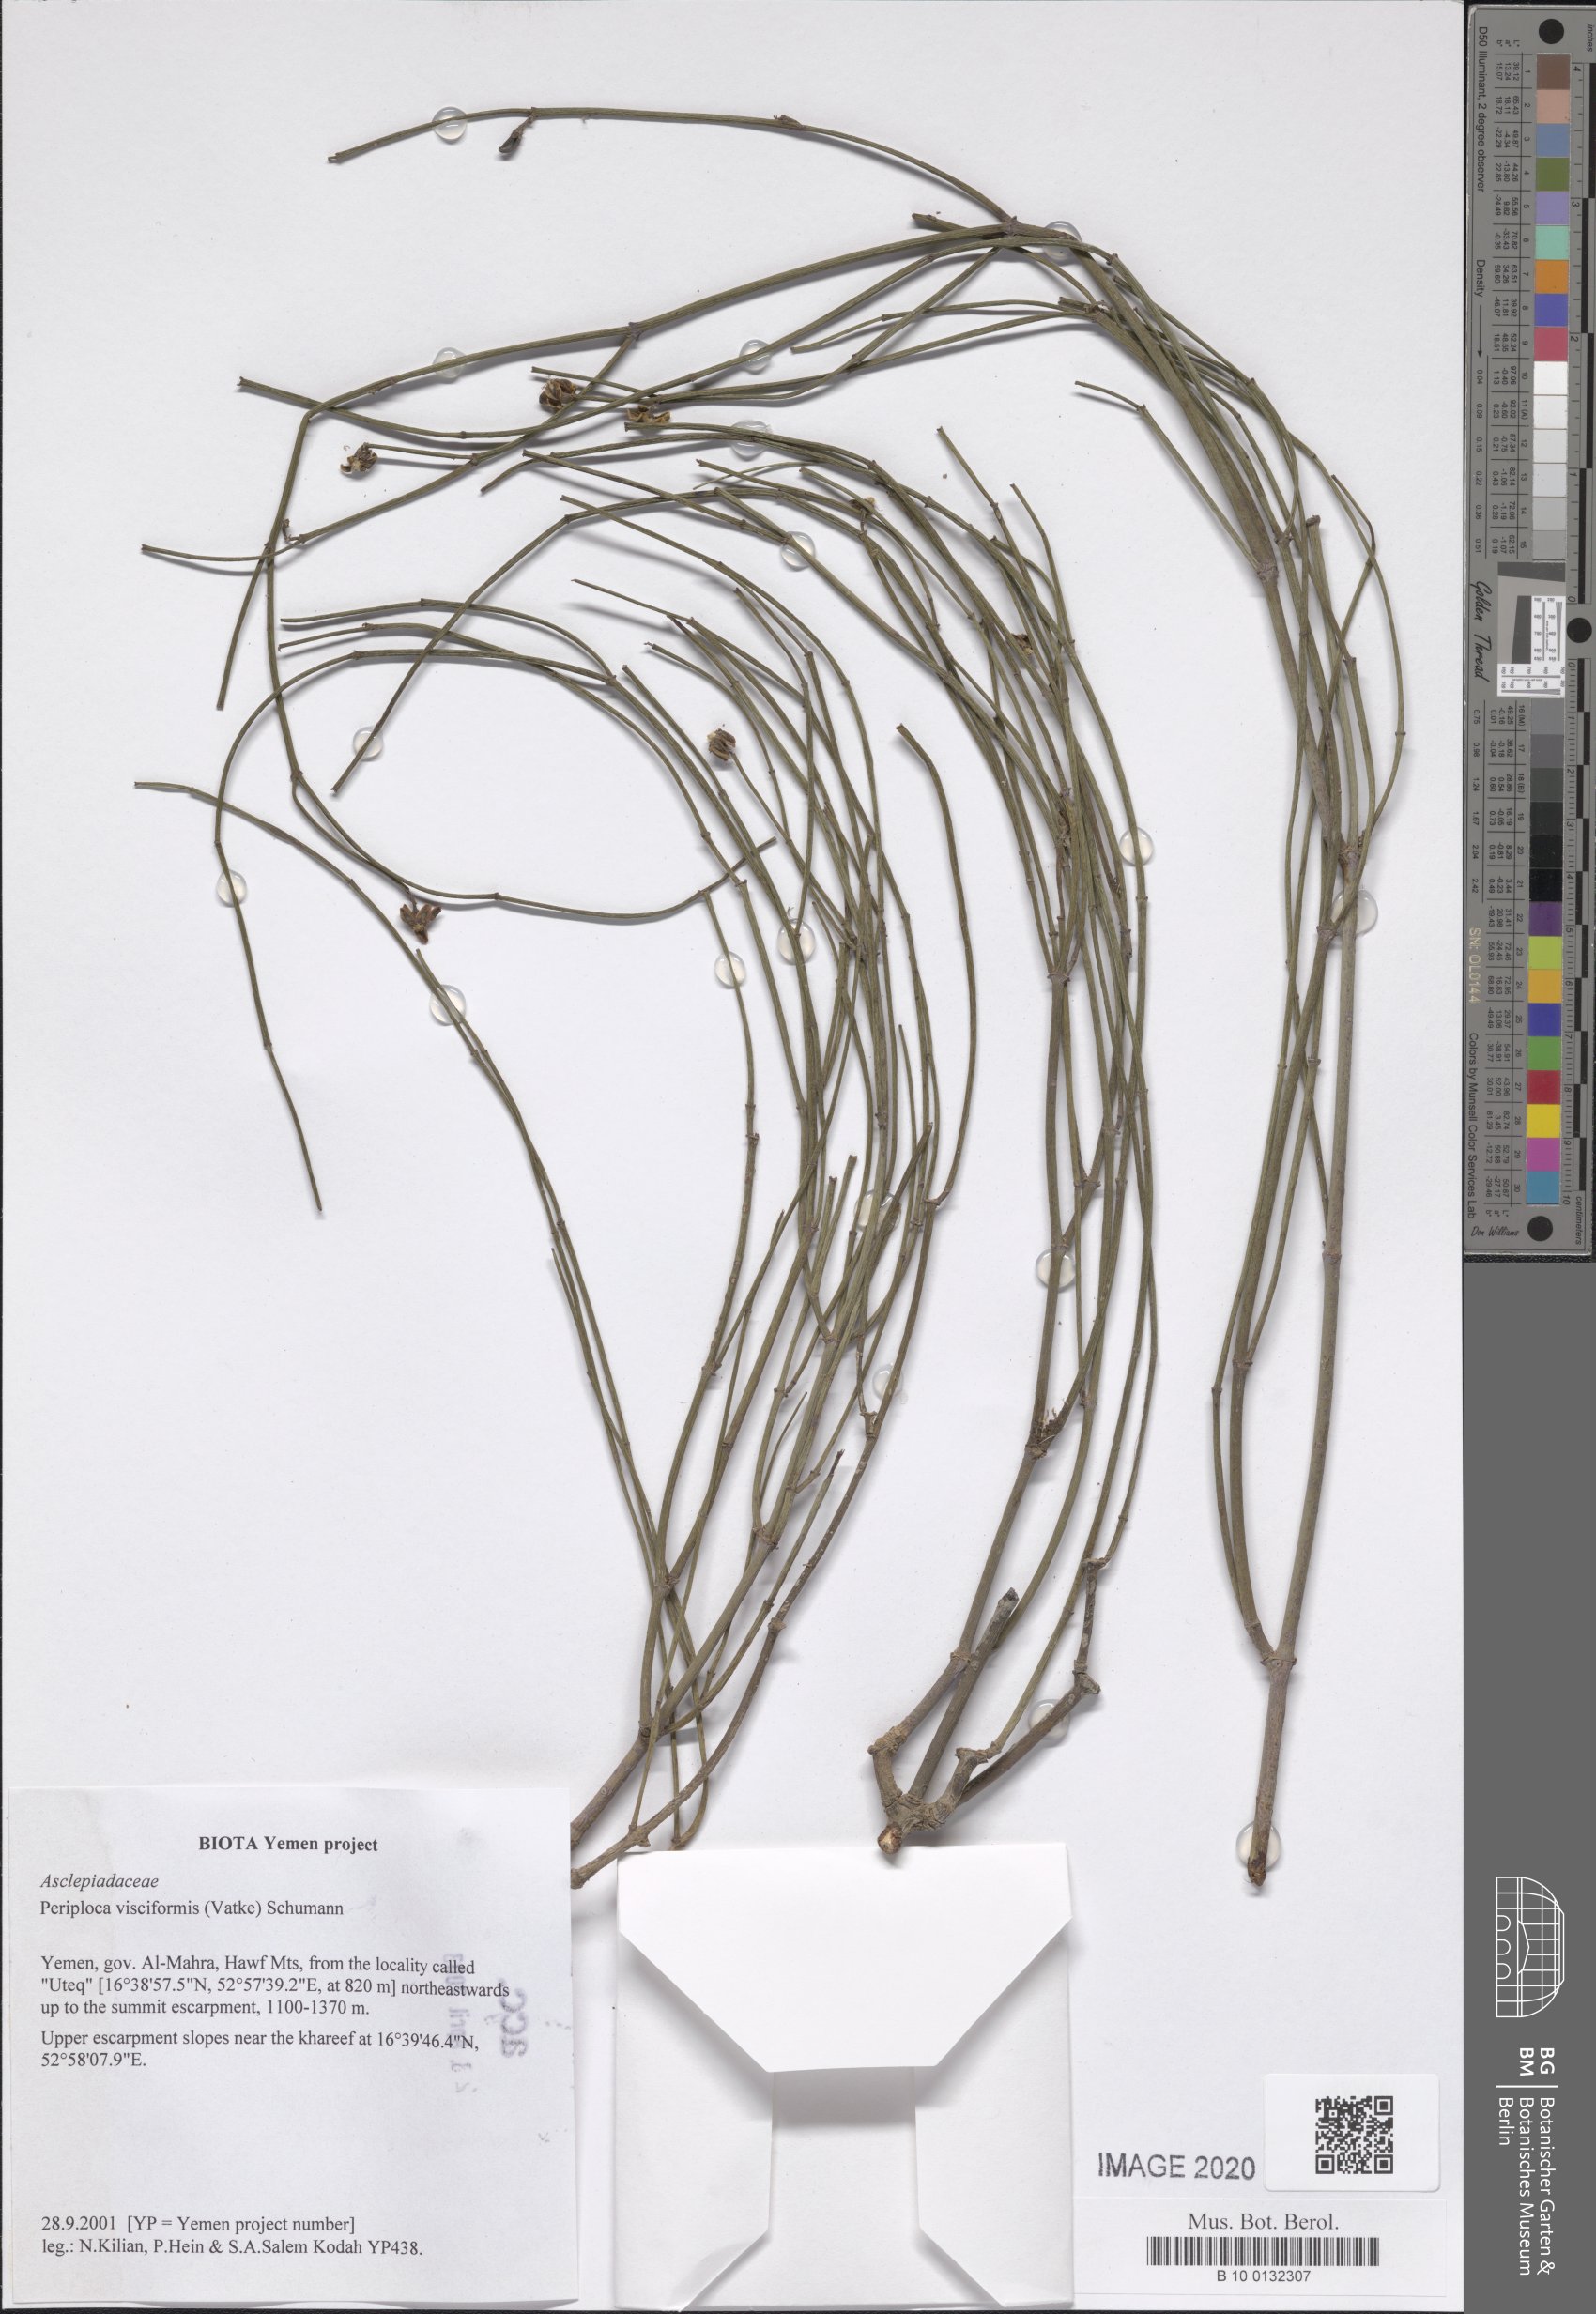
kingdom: Plantae
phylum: Tracheophyta
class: Magnoliopsida
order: Gentianales
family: Apocynaceae
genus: Periploca
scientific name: Periploca visciformis
